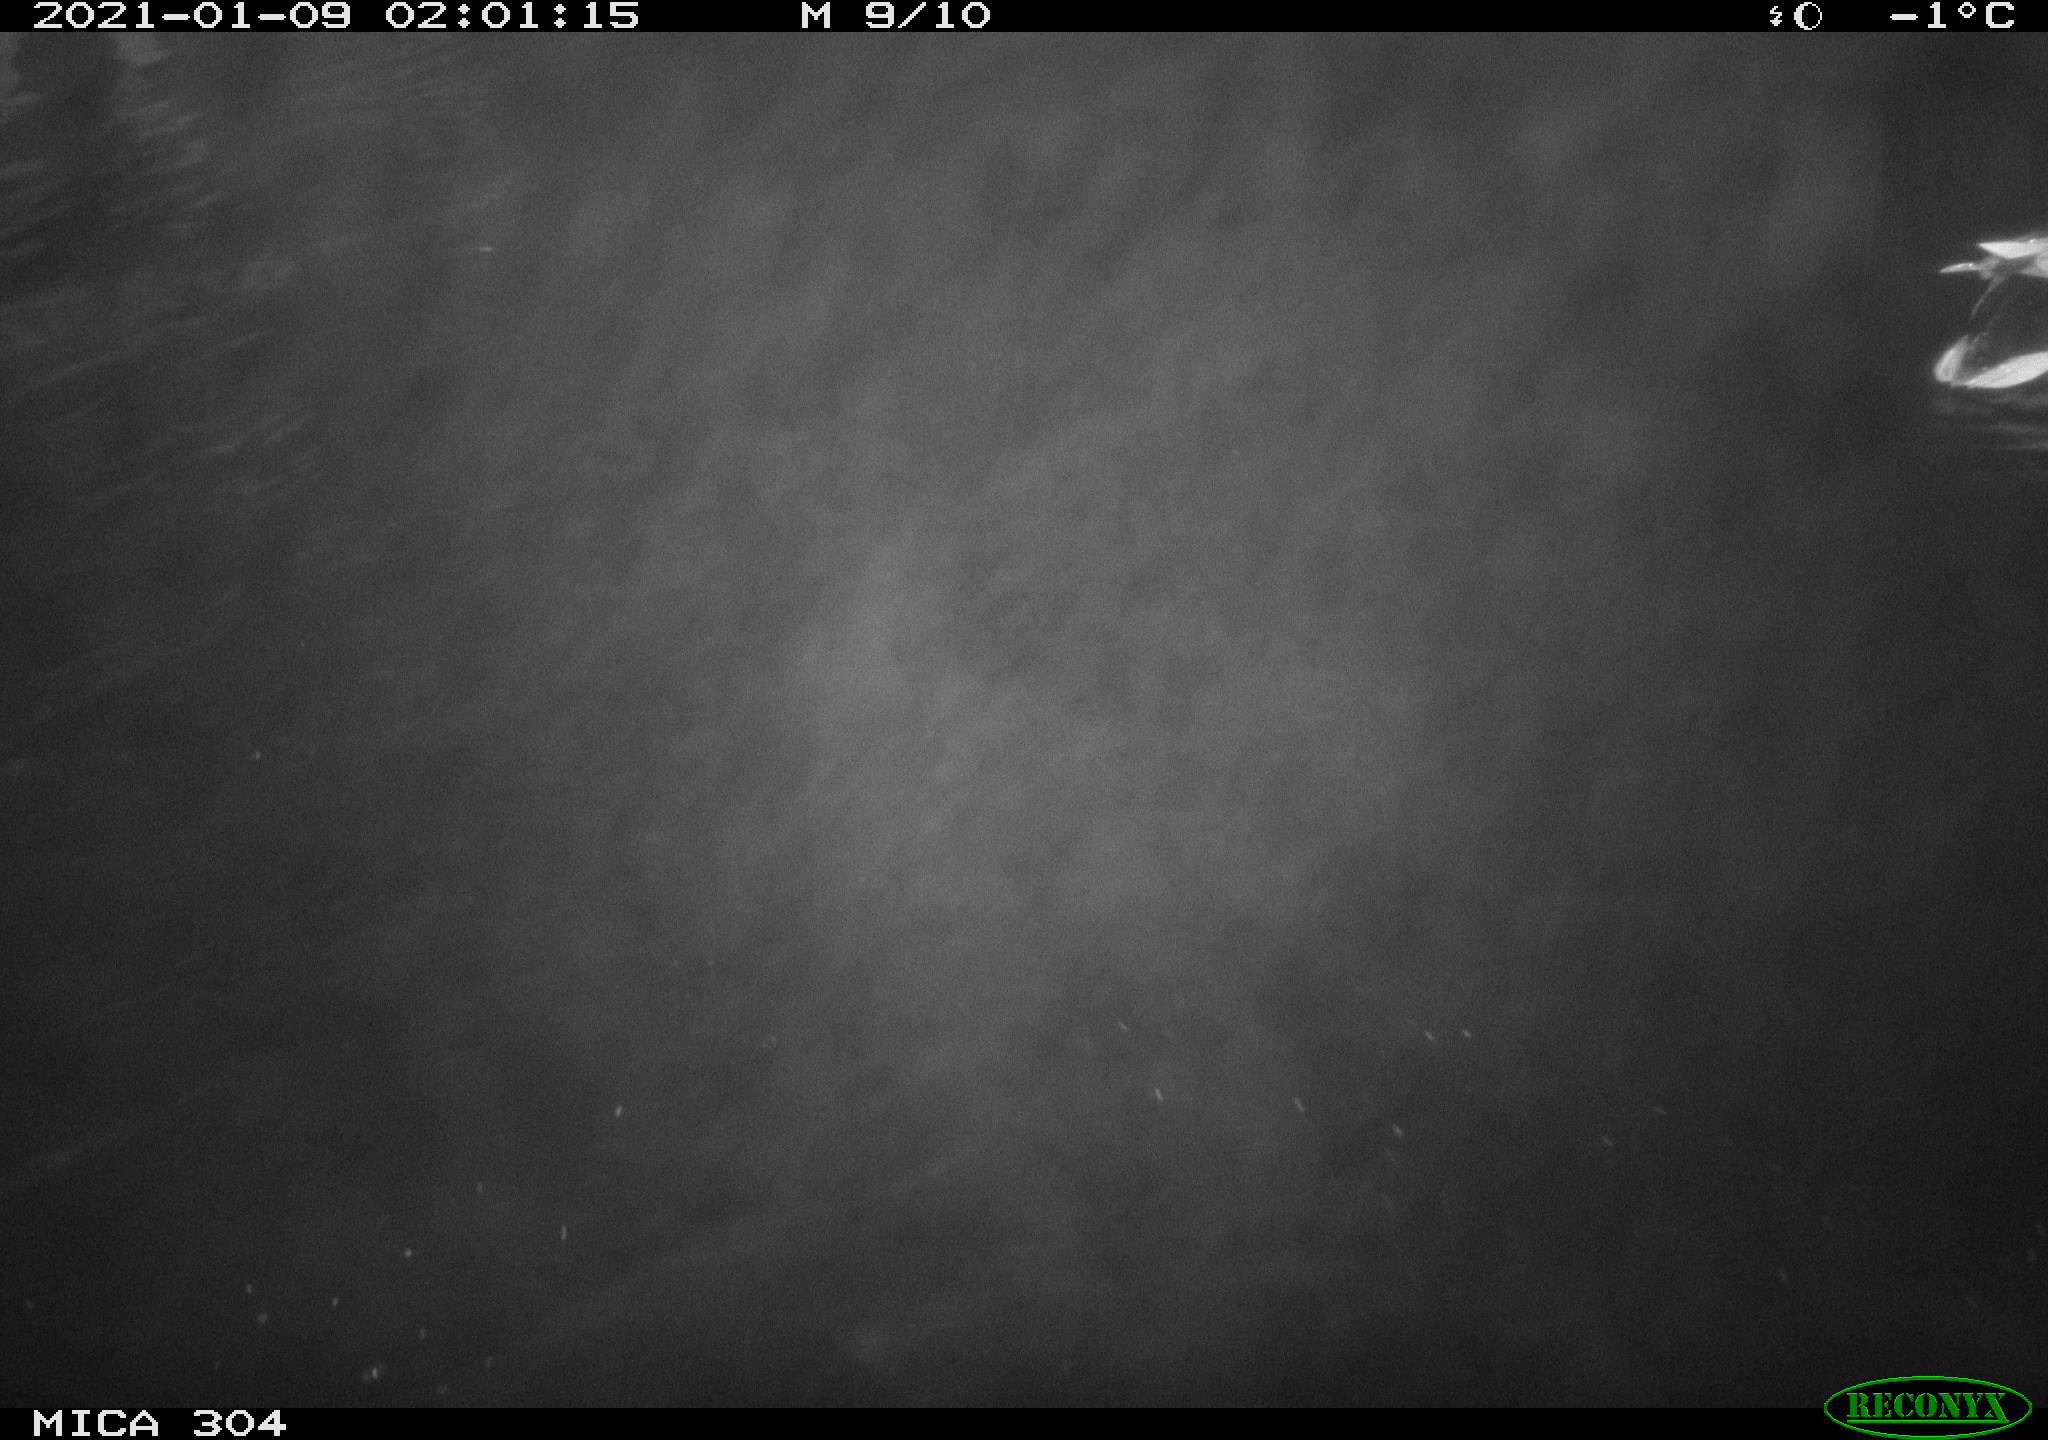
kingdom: Animalia
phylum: Chordata
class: Aves
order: Anseriformes
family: Anatidae
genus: Anas
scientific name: Anas platyrhynchos
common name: Mallard
